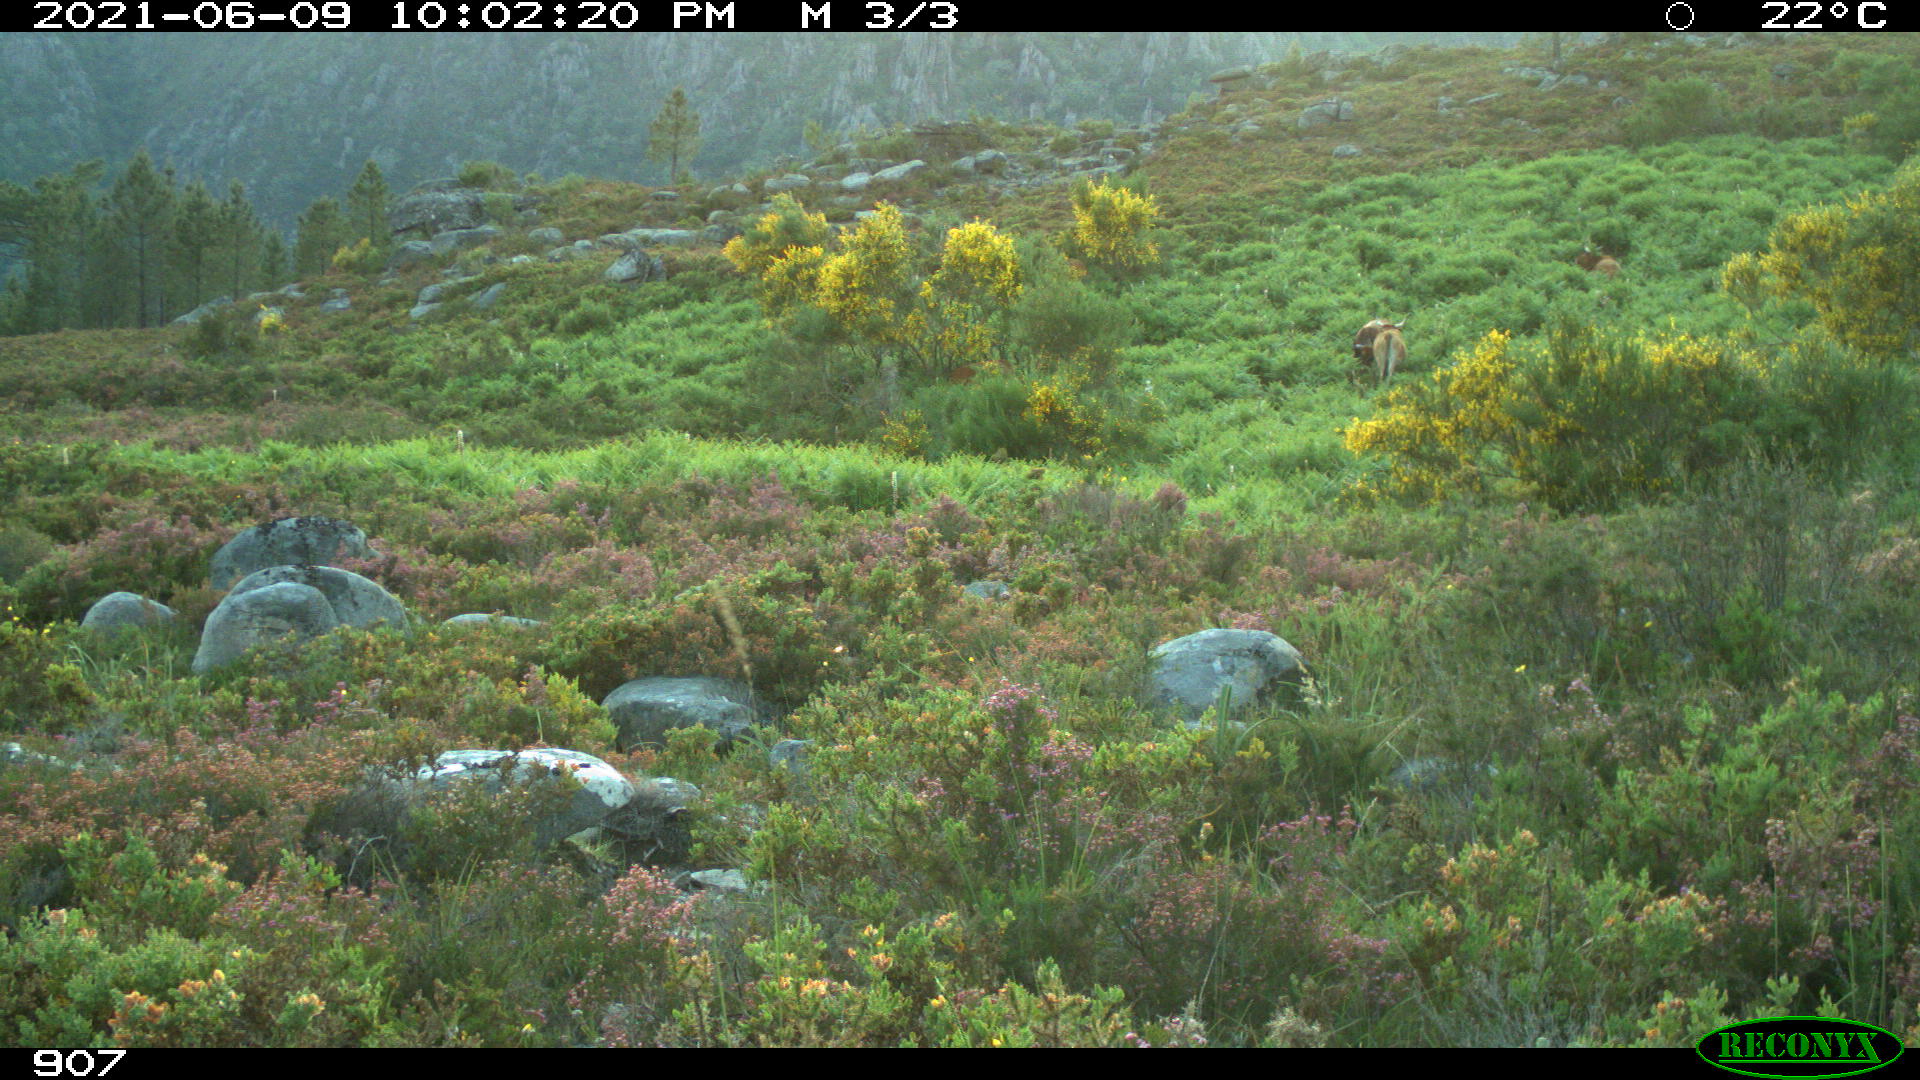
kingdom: Animalia
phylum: Chordata
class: Mammalia
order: Artiodactyla
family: Bovidae
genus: Bos
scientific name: Bos taurus
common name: Domesticated cattle
